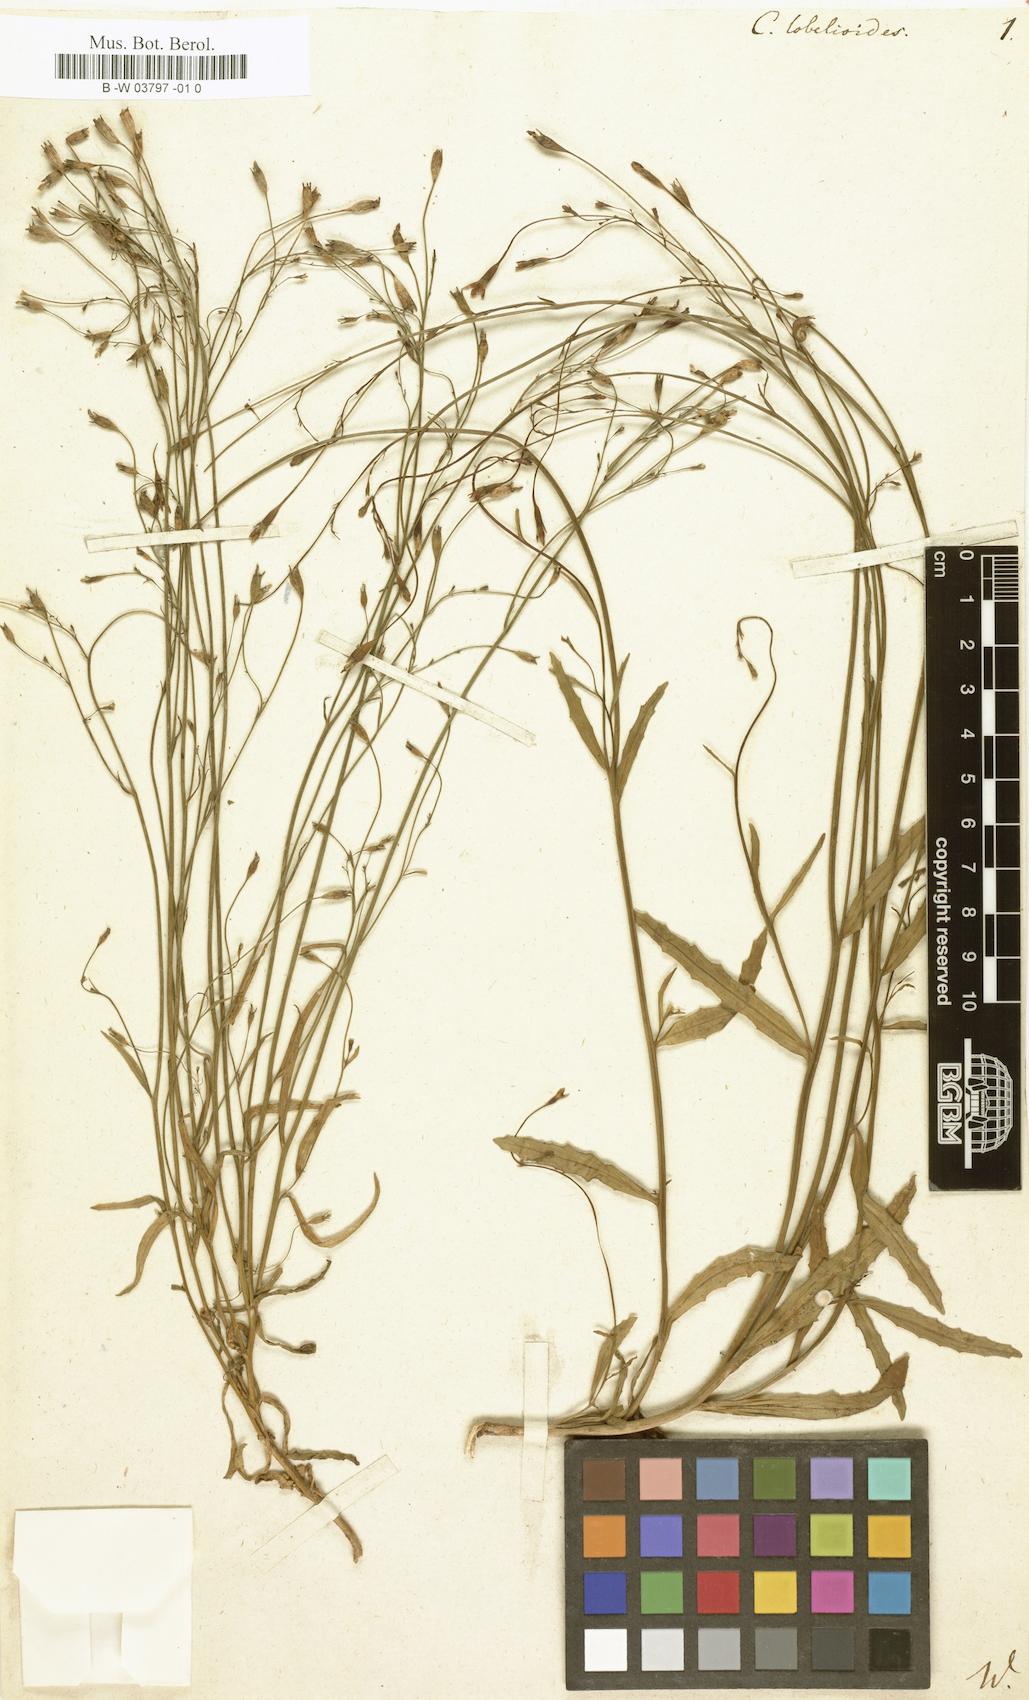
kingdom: Plantae
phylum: Tracheophyta
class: Magnoliopsida
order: Asterales
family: Campanulaceae
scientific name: Campanulaceae
